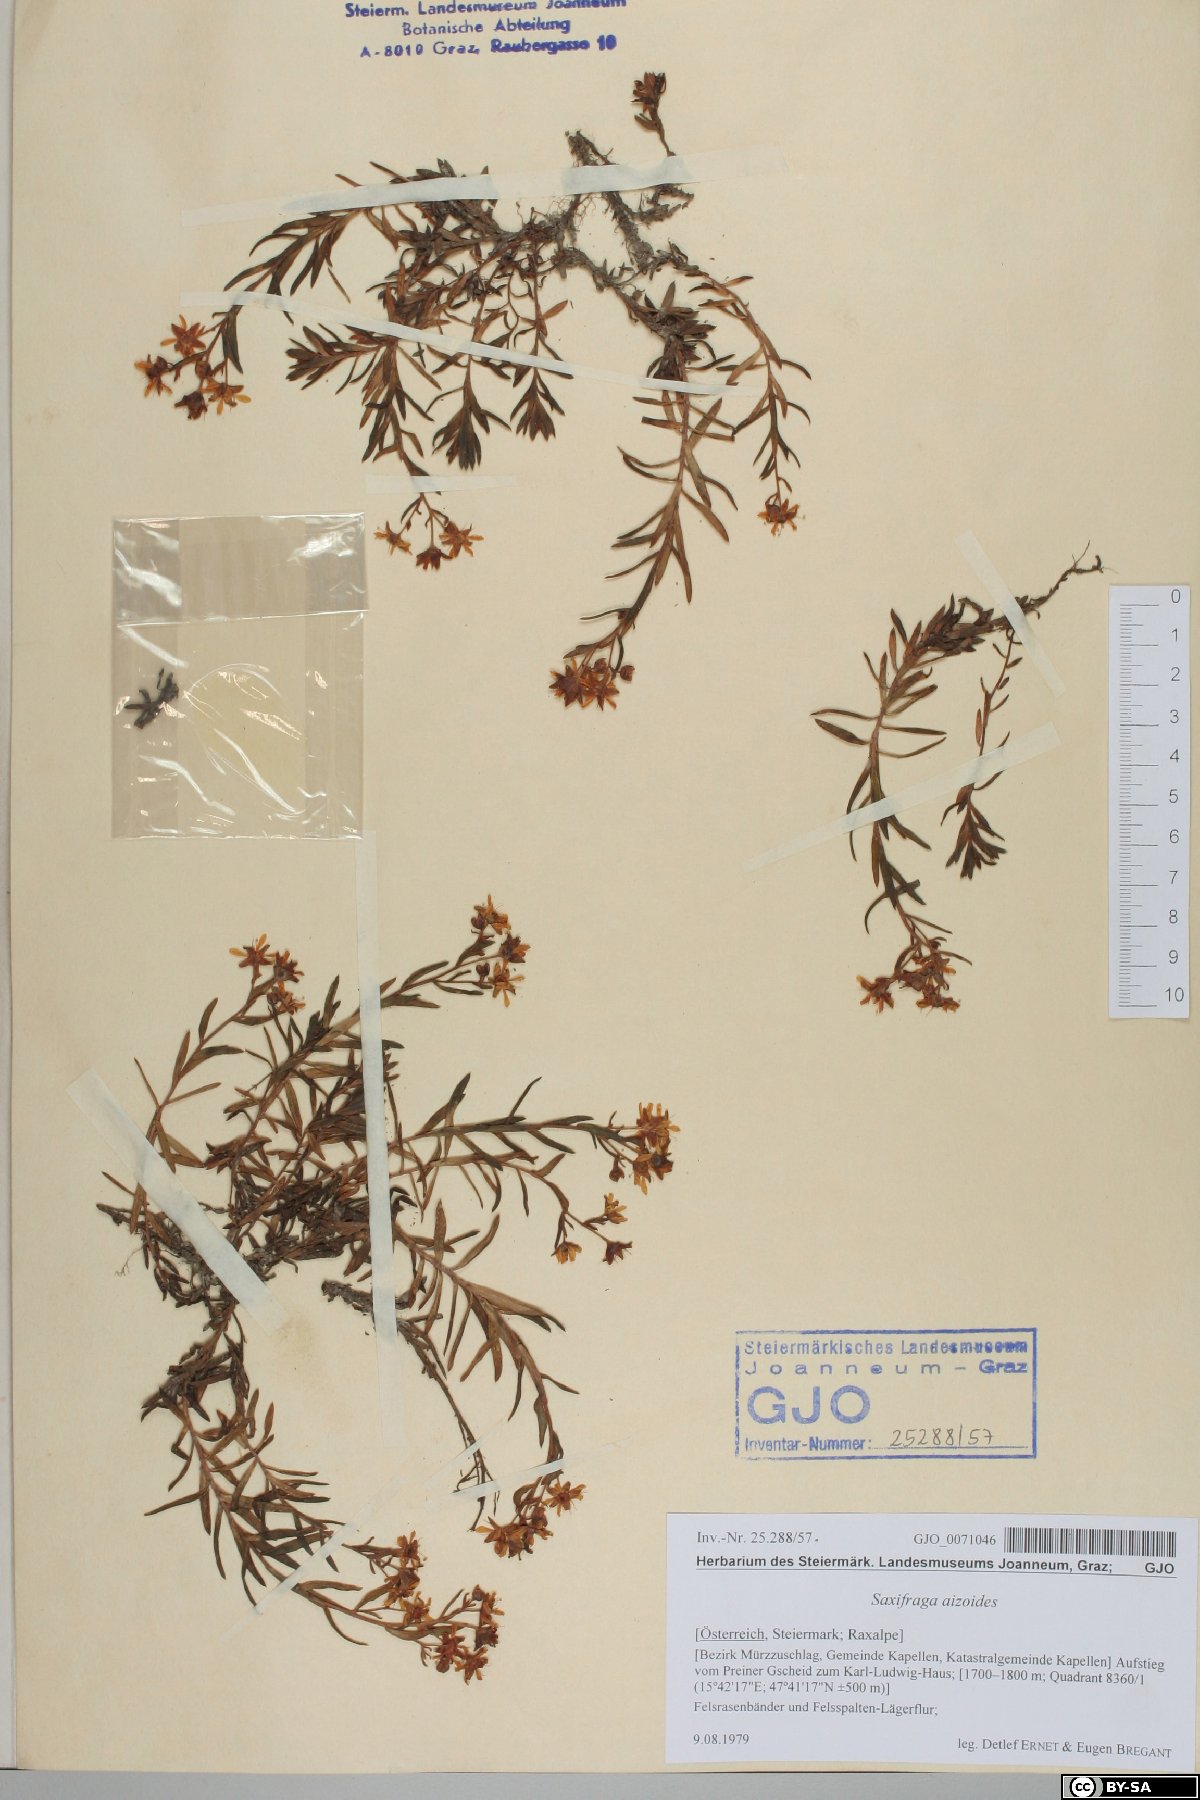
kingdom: Plantae
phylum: Tracheophyta
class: Magnoliopsida
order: Saxifragales
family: Saxifragaceae
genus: Saxifraga
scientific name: Saxifraga aizoides
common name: Yellow mountain saxifrage
